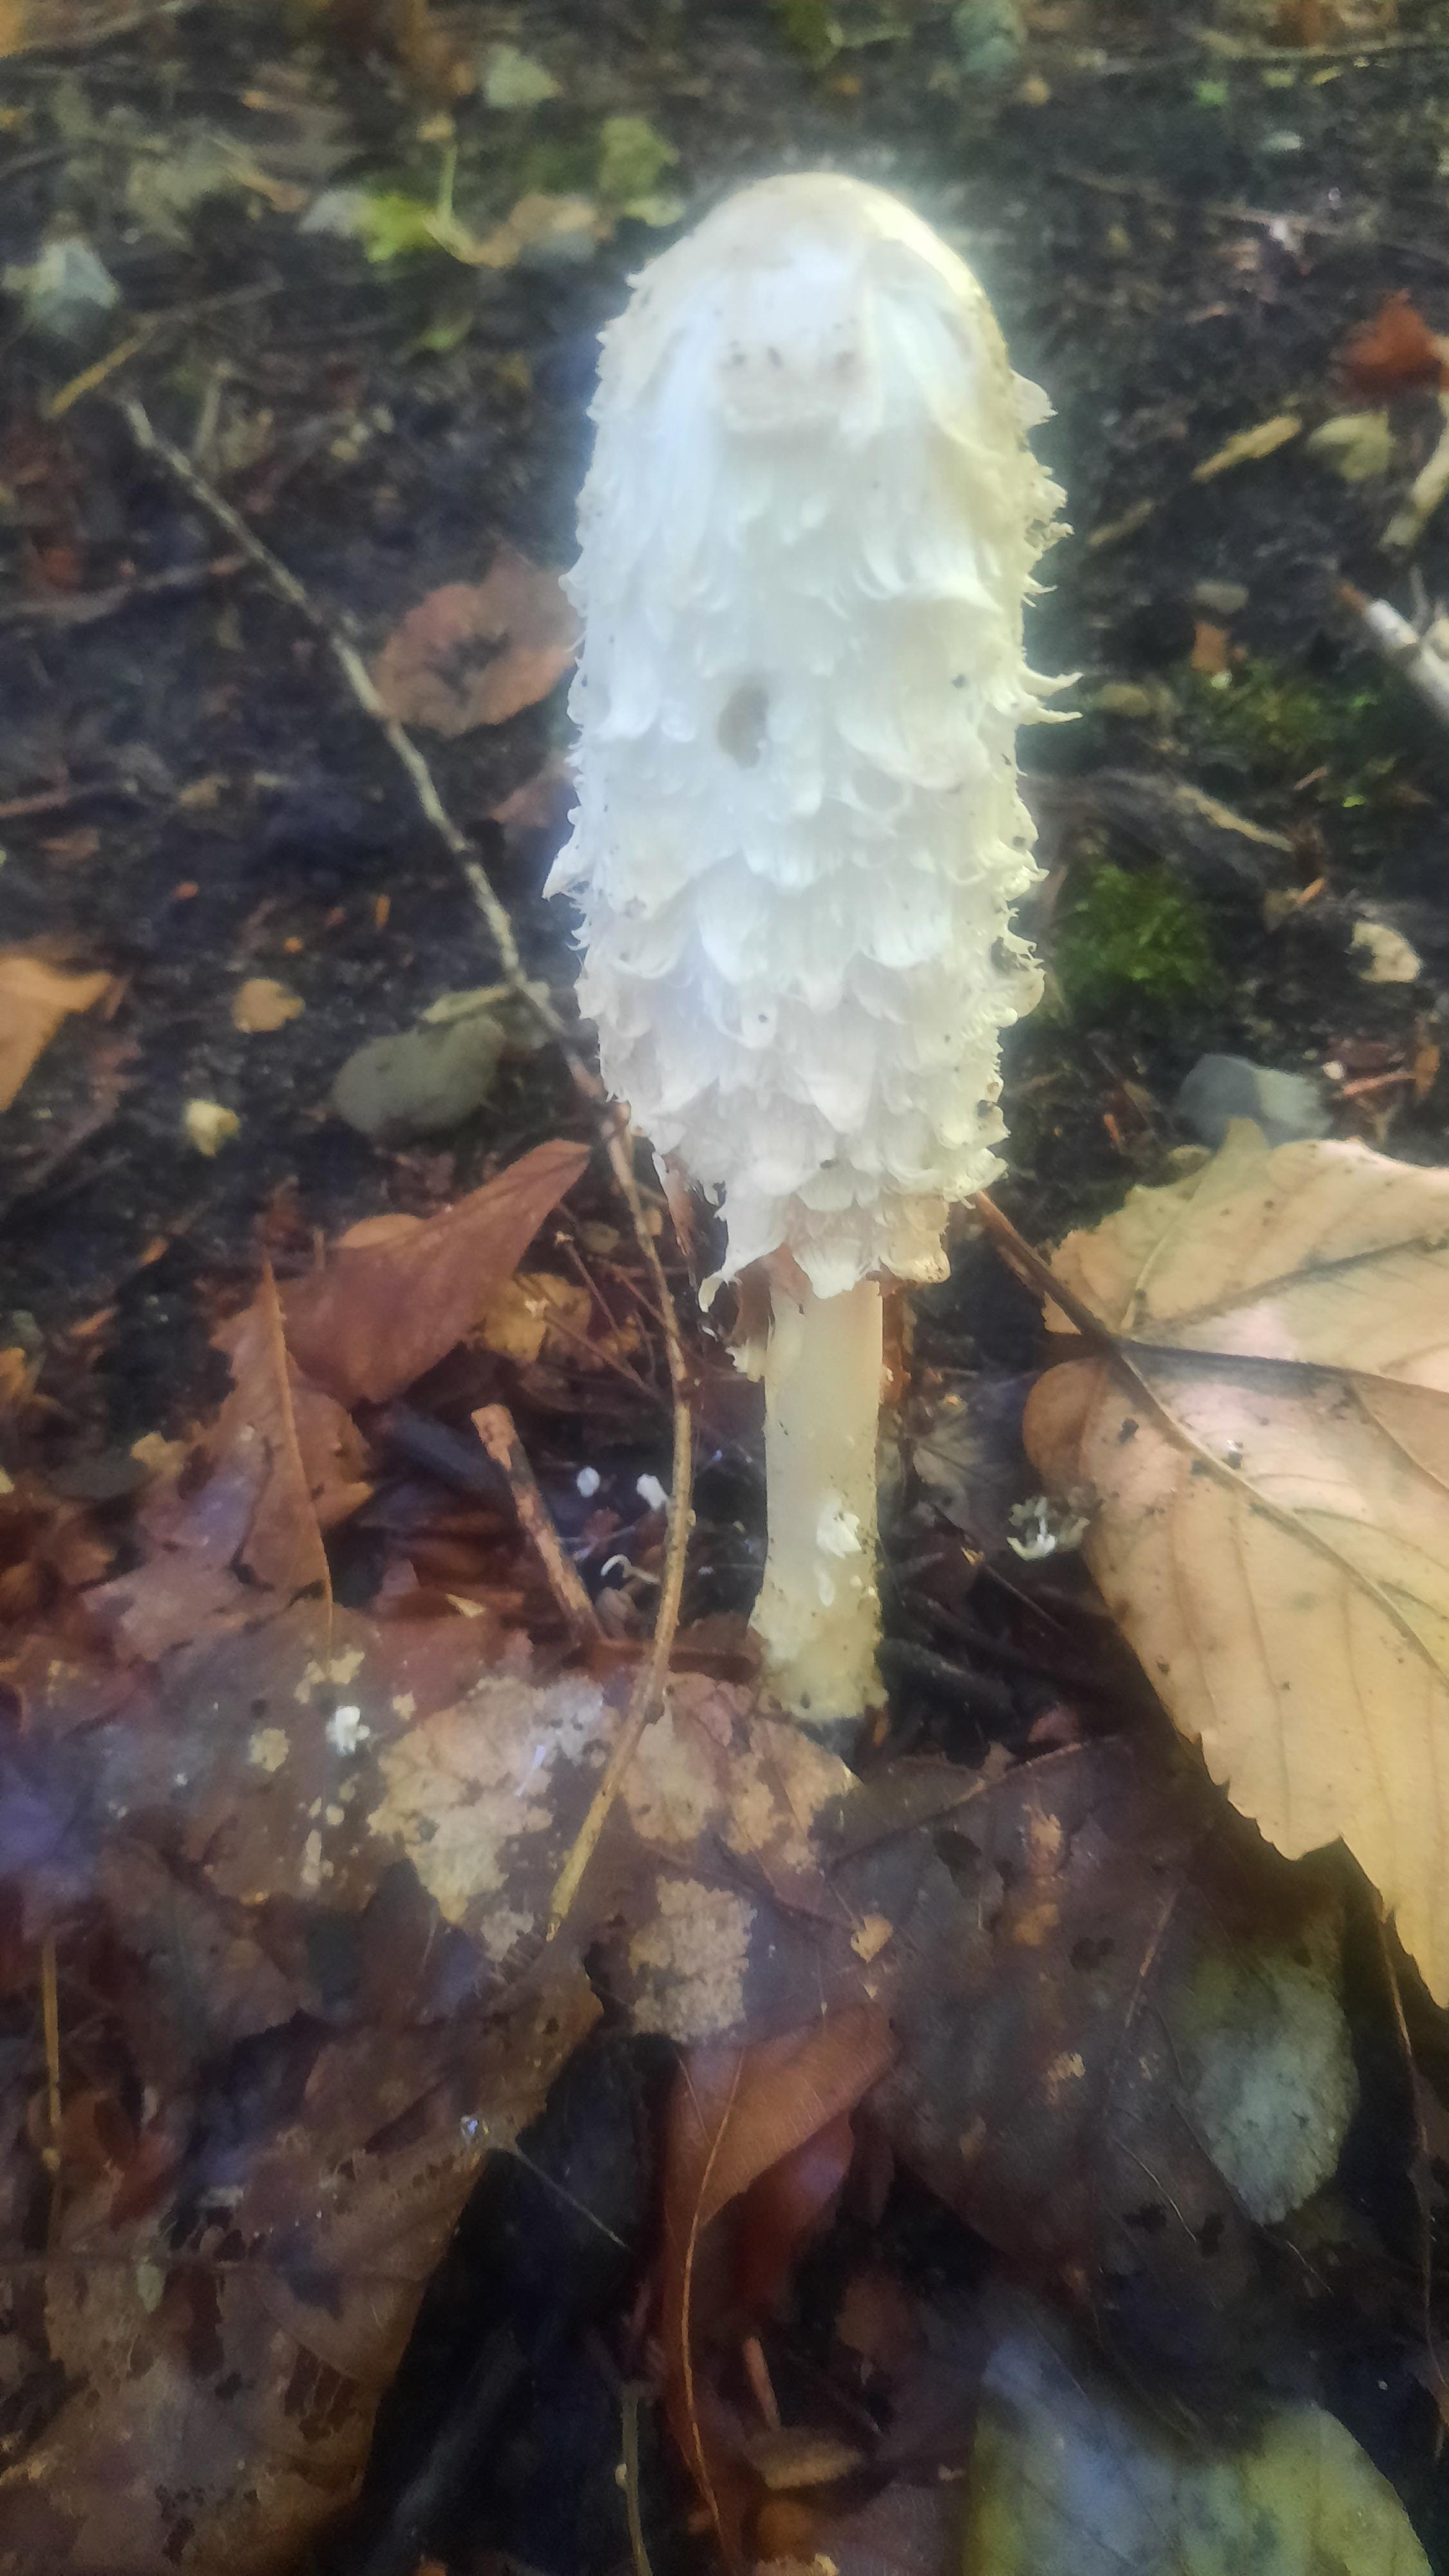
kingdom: Fungi
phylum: Basidiomycota
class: Agaricomycetes
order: Agaricales
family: Agaricaceae
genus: Coprinus
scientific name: Coprinus comatus
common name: stor parykhat
